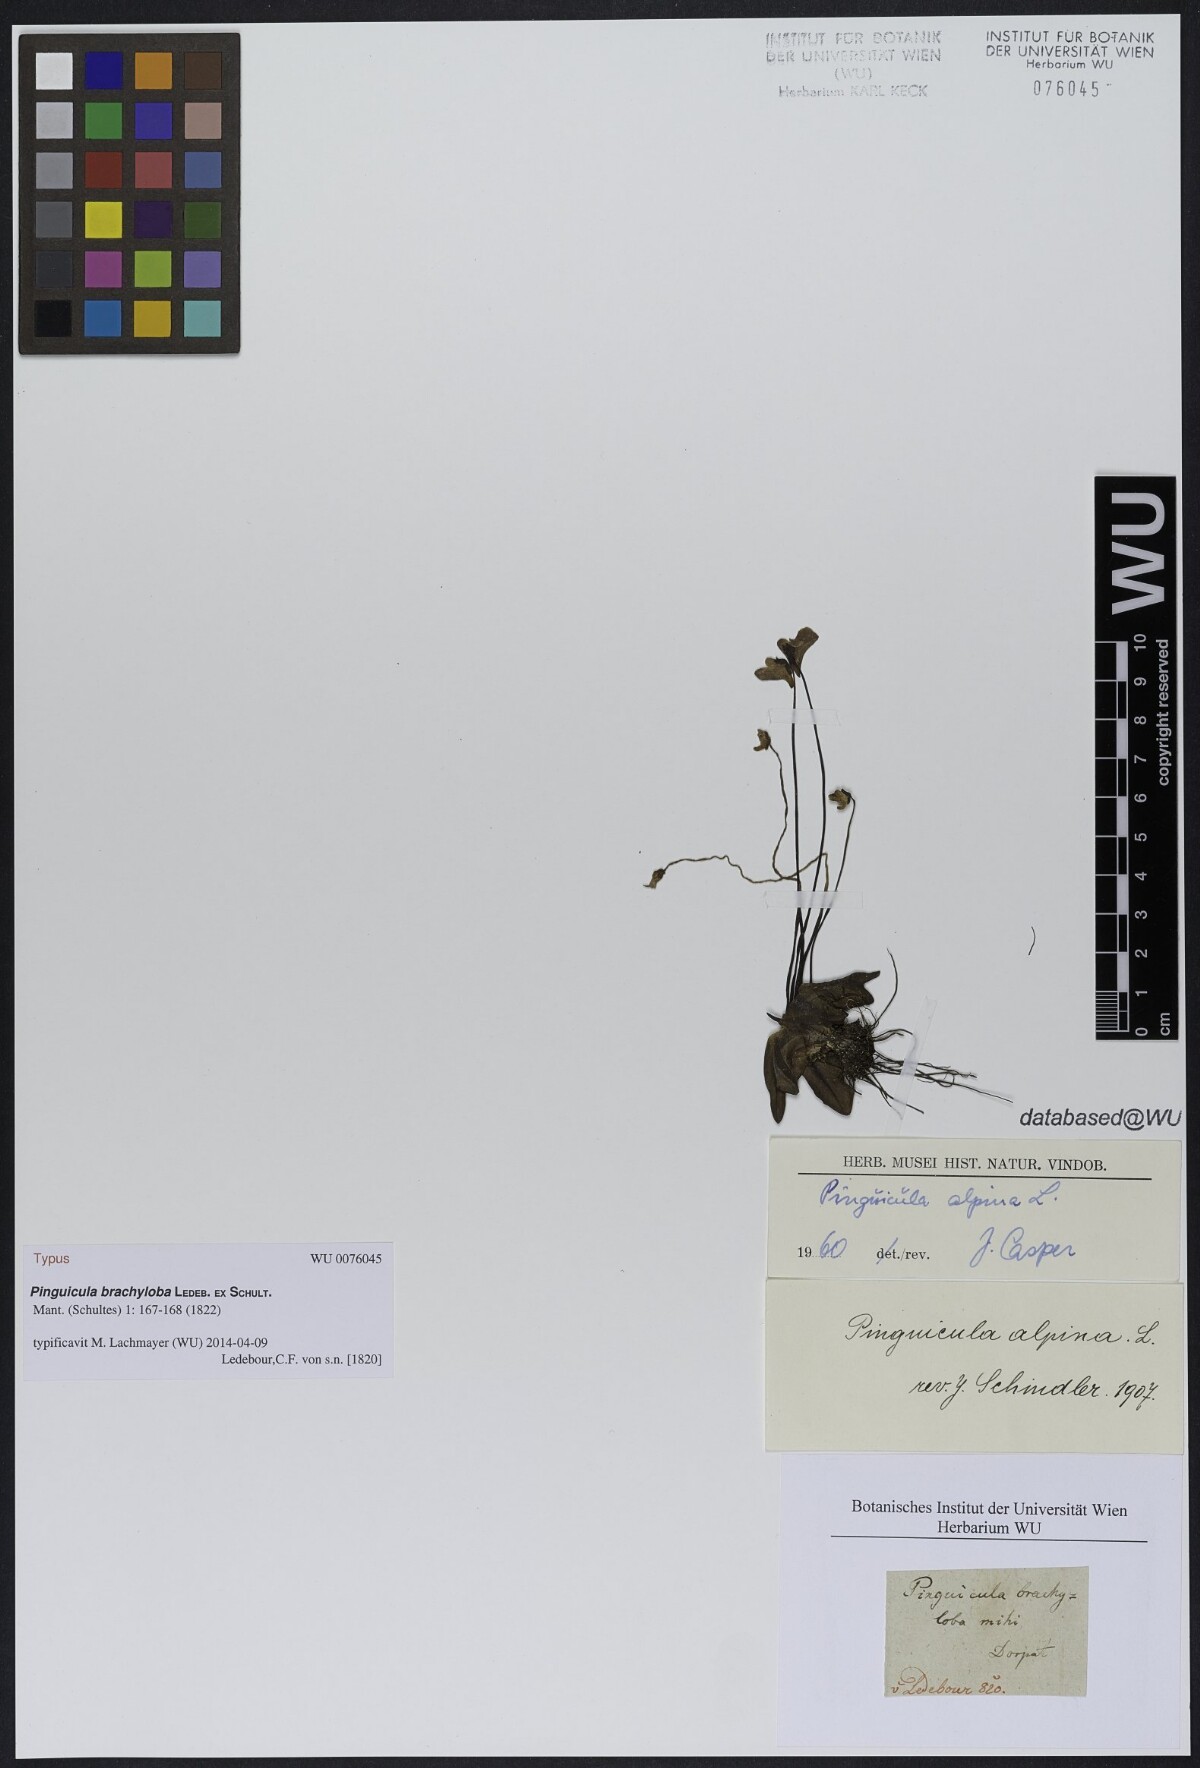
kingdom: Plantae
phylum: Tracheophyta
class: Magnoliopsida
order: Lamiales
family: Lentibulariaceae
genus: Pinguicula
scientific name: Pinguicula alpina
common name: Alpine butterwort
